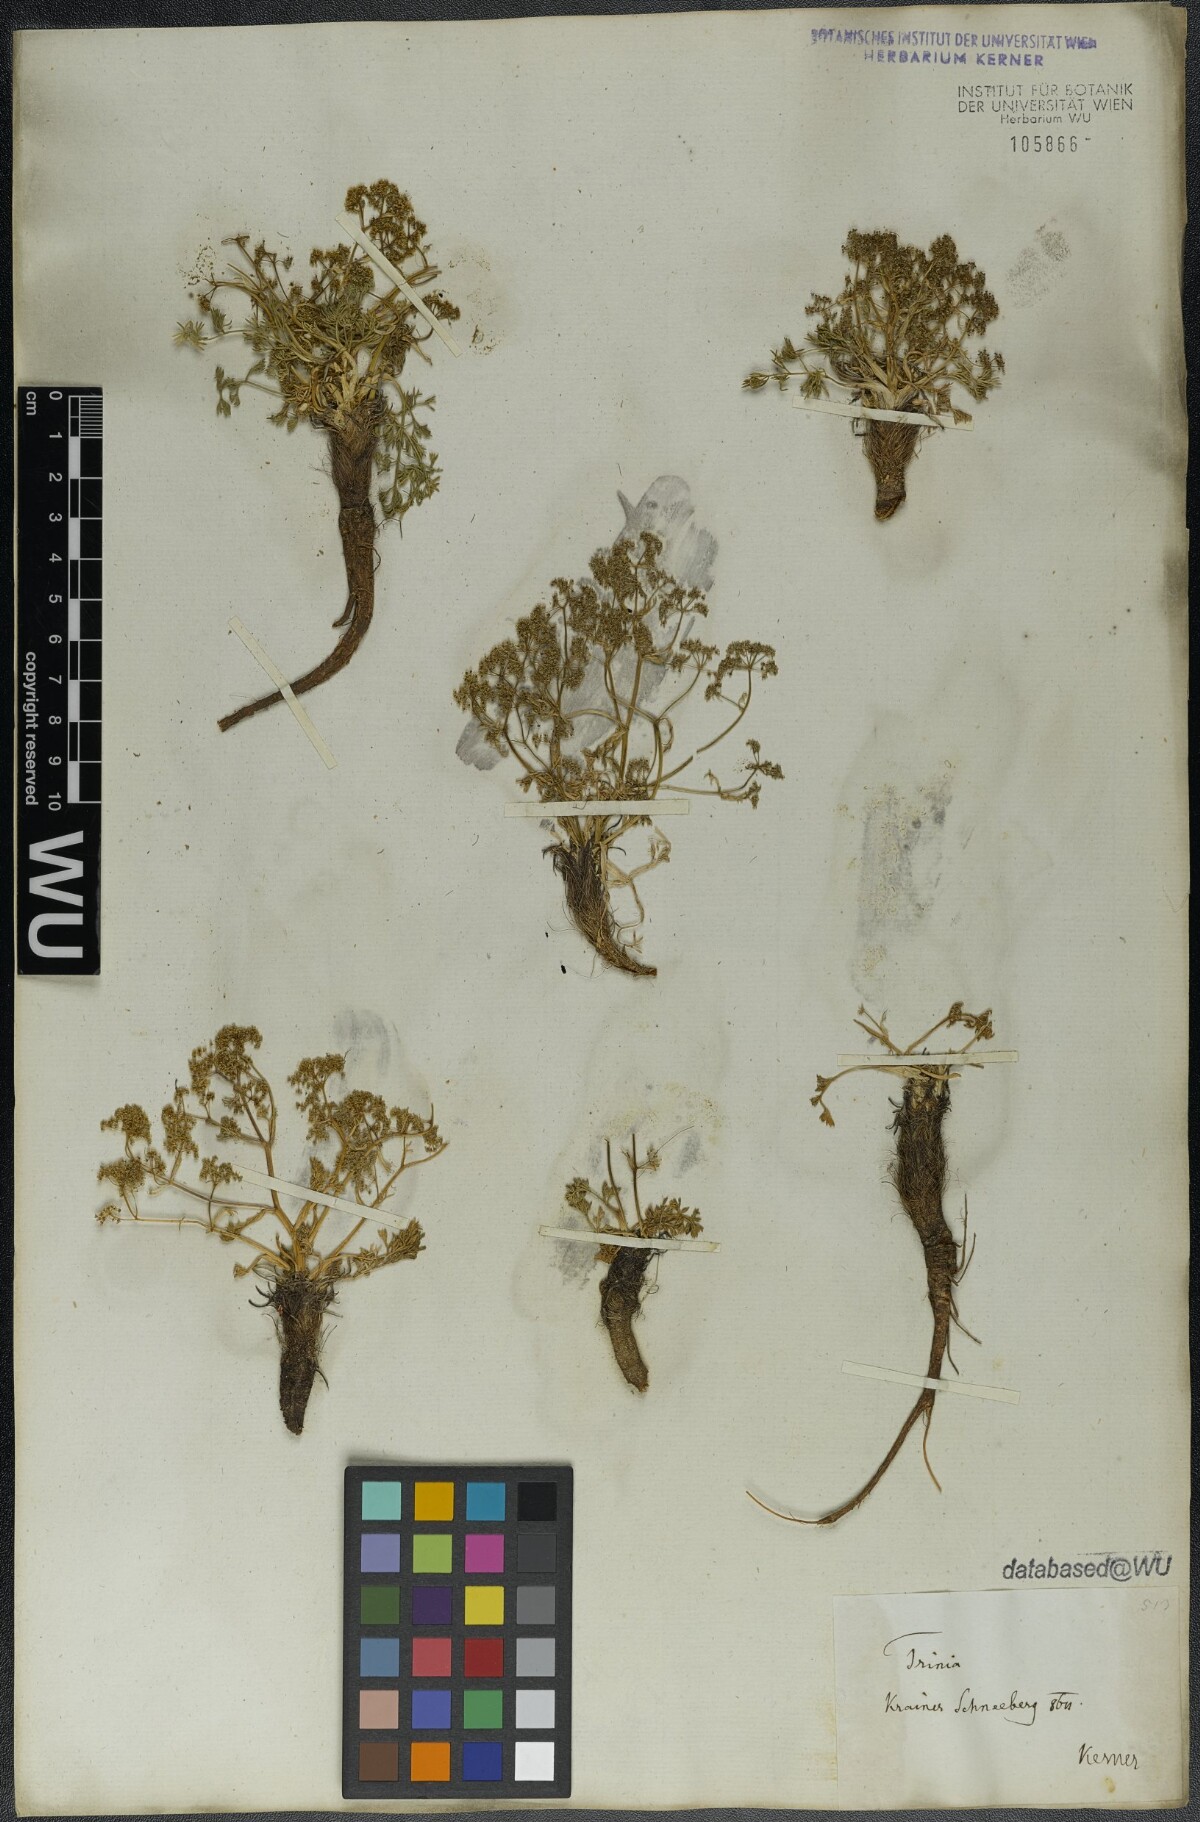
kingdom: Plantae
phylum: Tracheophyta
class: Magnoliopsida
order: Apiales
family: Apiaceae
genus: Trinia
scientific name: Trinia dalechampii
